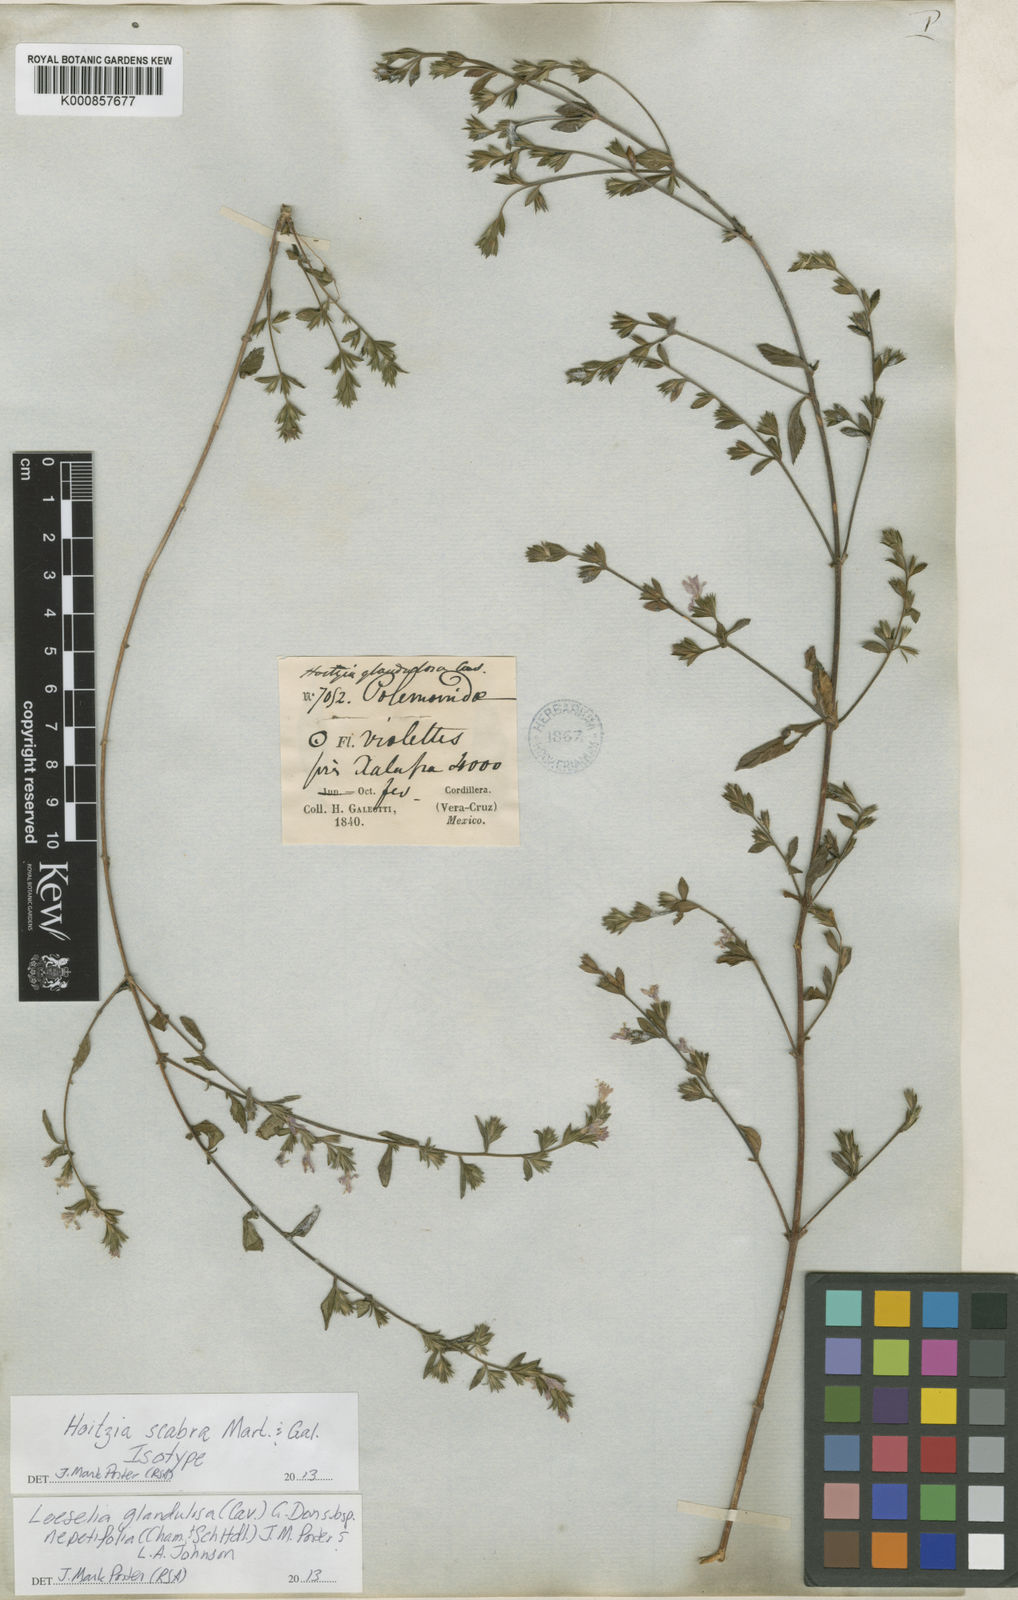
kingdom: Plantae
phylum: Tracheophyta
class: Magnoliopsida
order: Ericales
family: Polemoniaceae
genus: Loeselia
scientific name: Loeselia glandulosa
